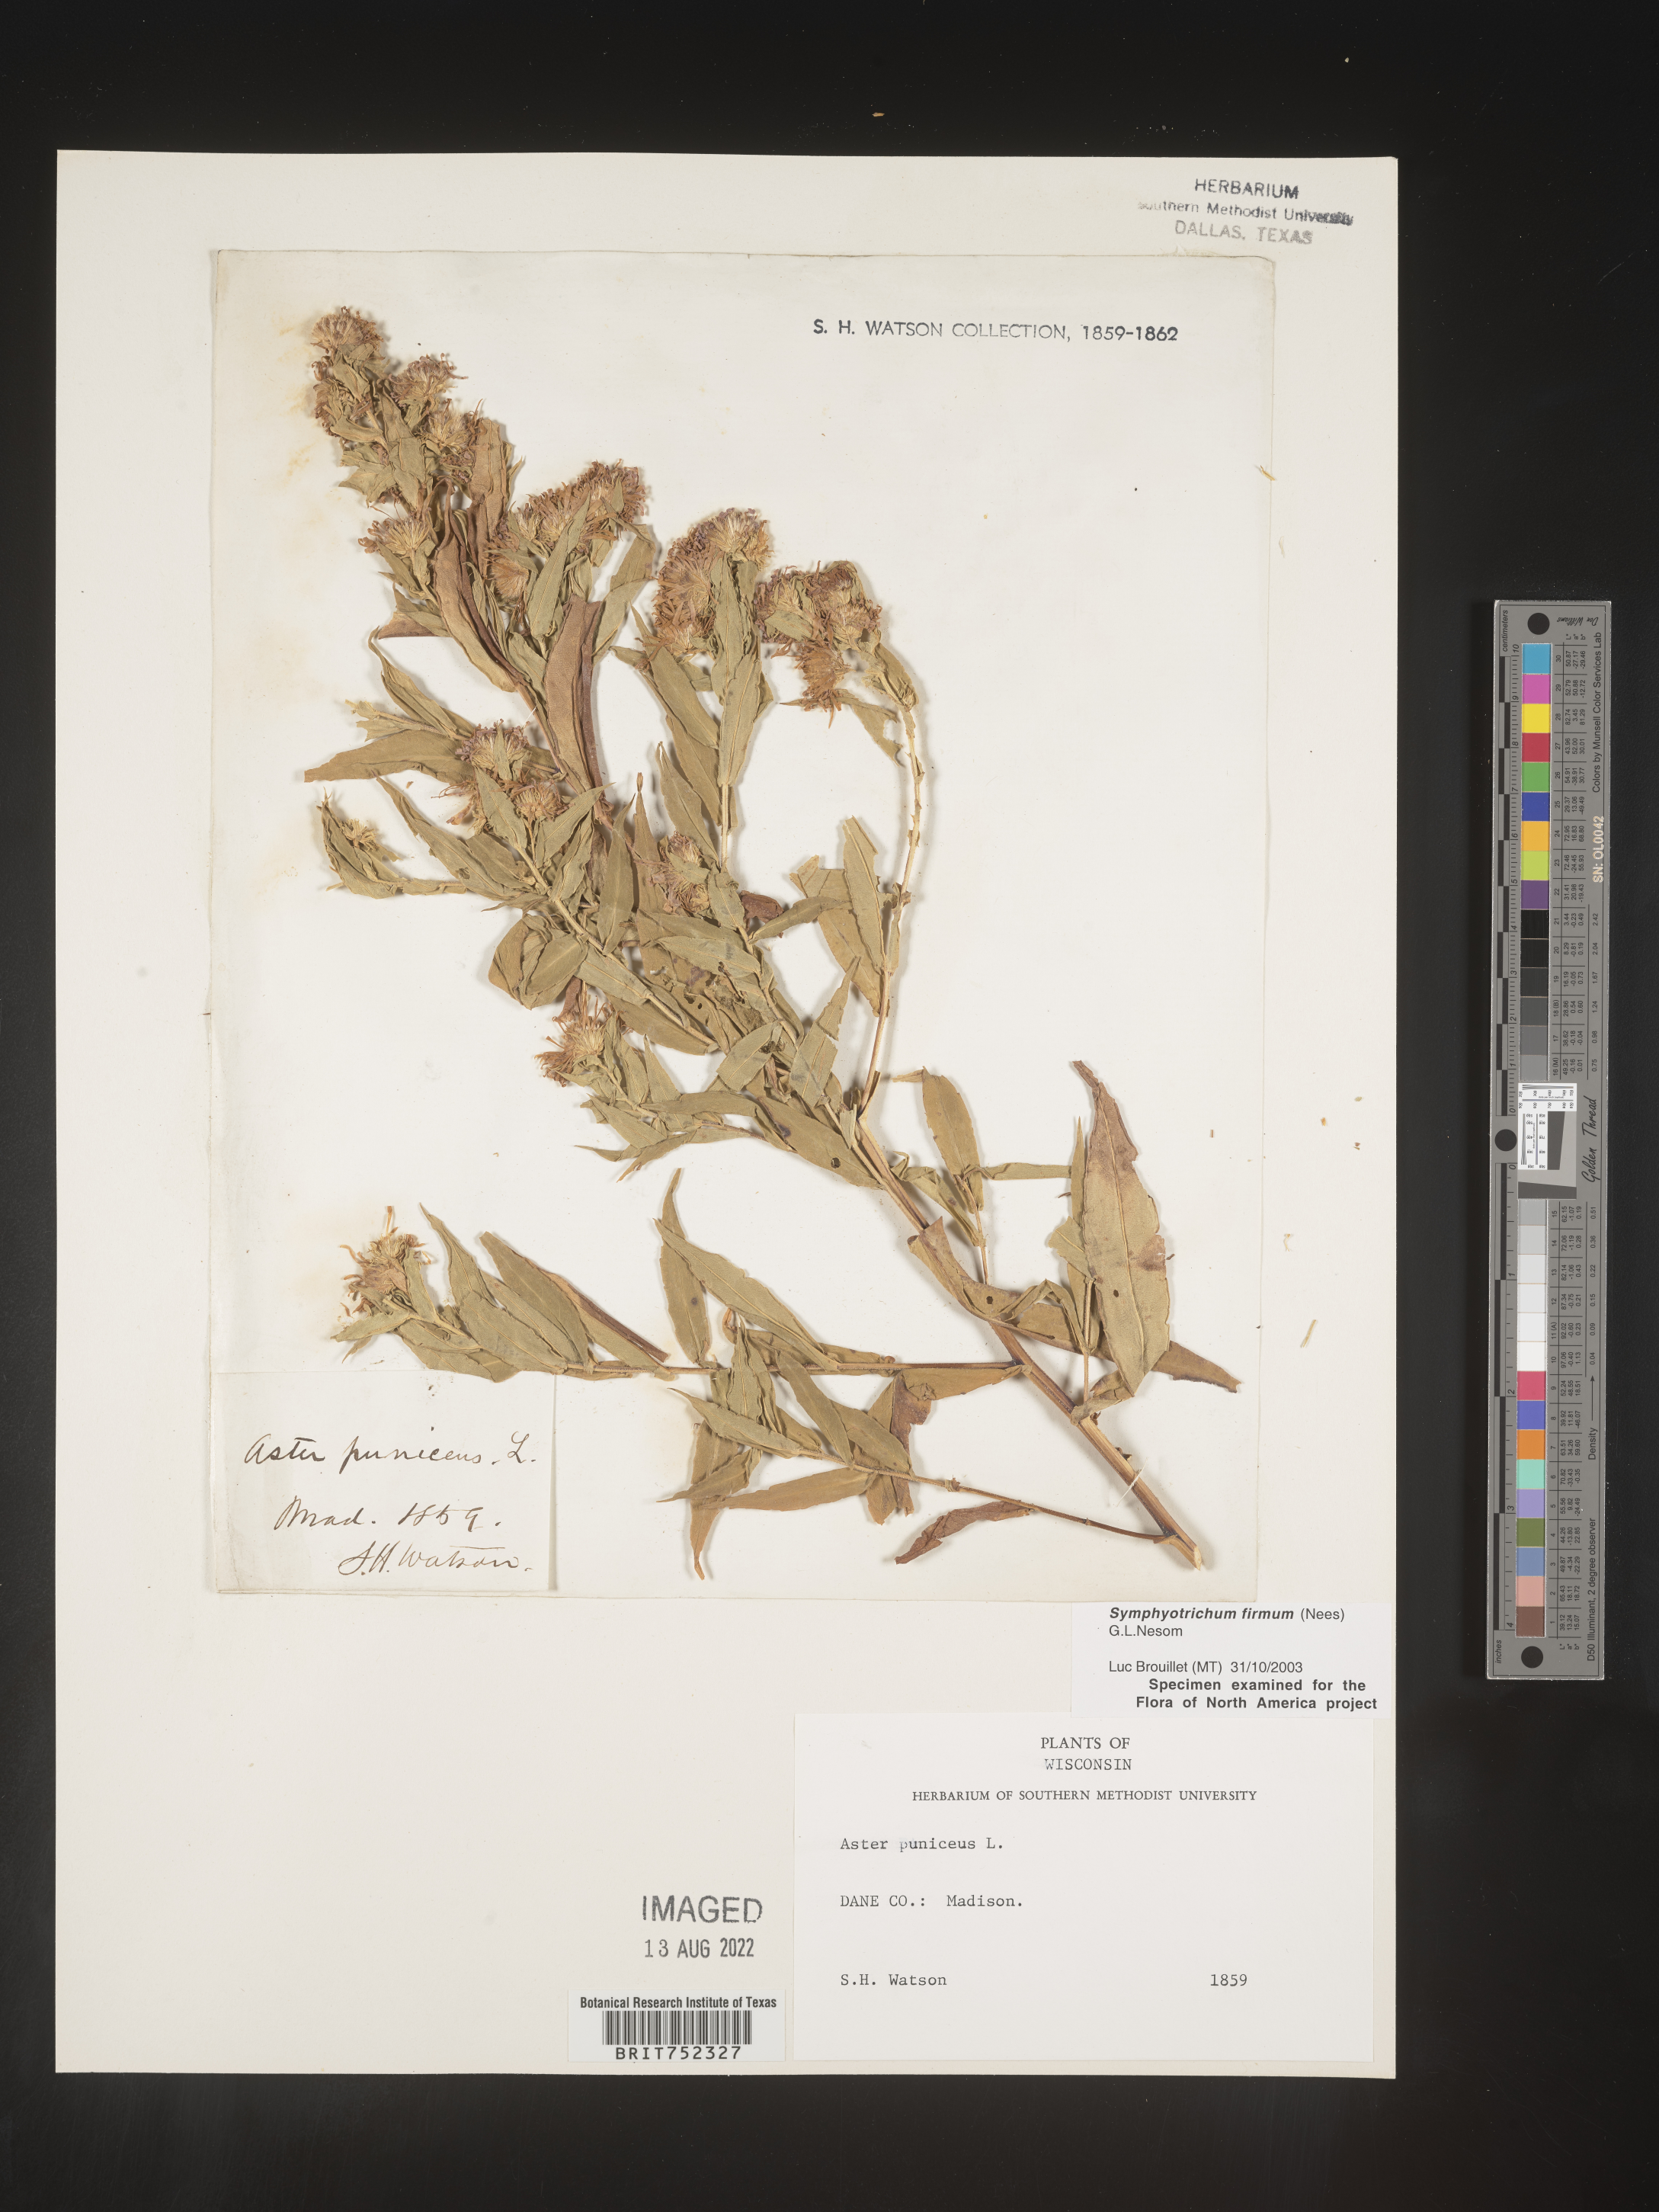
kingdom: Plantae
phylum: Tracheophyta
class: Magnoliopsida
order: Asterales
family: Asteraceae
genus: Symphyotrichum
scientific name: Symphyotrichum firmum
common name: Shining aster
